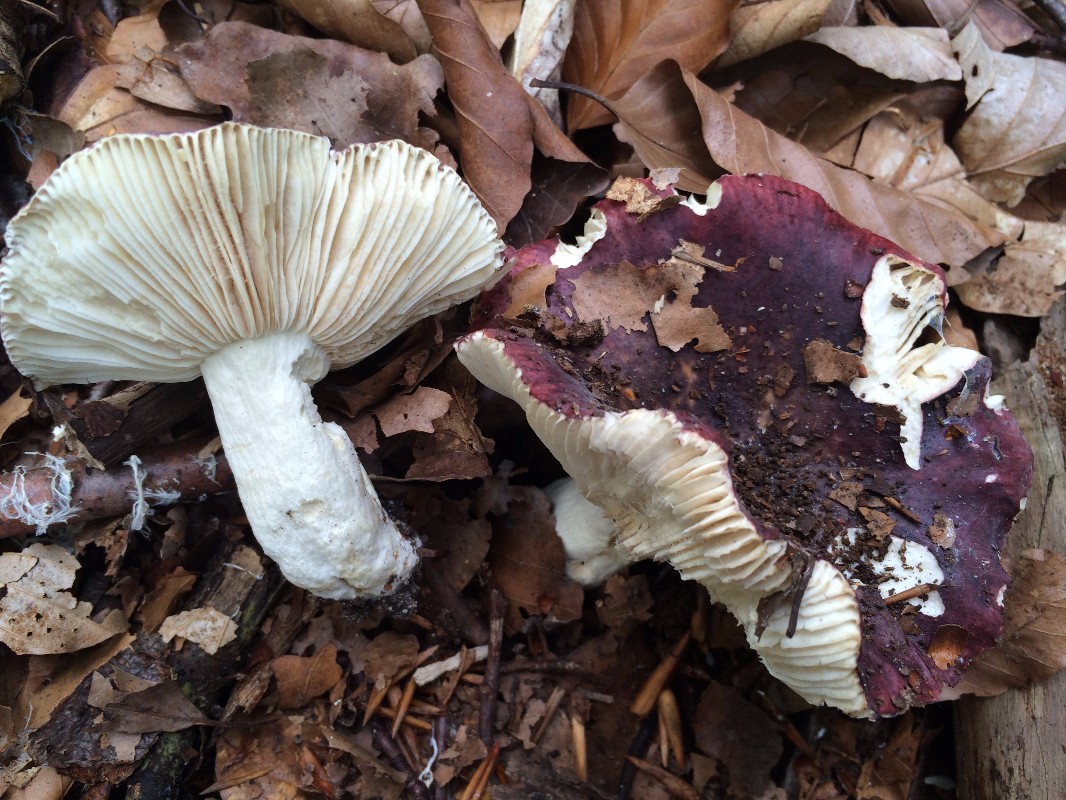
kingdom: Fungi
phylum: Basidiomycota
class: Agaricomycetes
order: Russulales
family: Russulaceae
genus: Russula
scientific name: Russula atropurpurea
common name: purpurbroget skørhat
